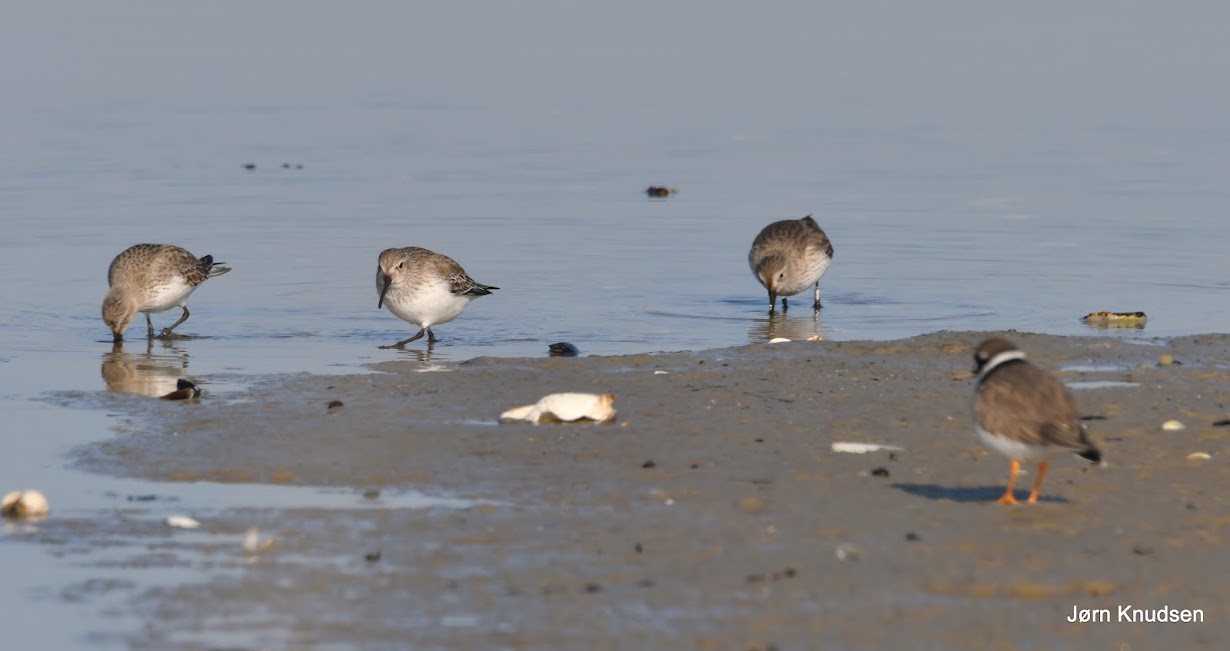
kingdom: Animalia
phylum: Chordata
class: Aves
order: Charadriiformes
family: Scolopacidae
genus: Calidris
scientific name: Calidris alpina
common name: Almindelig ryle
